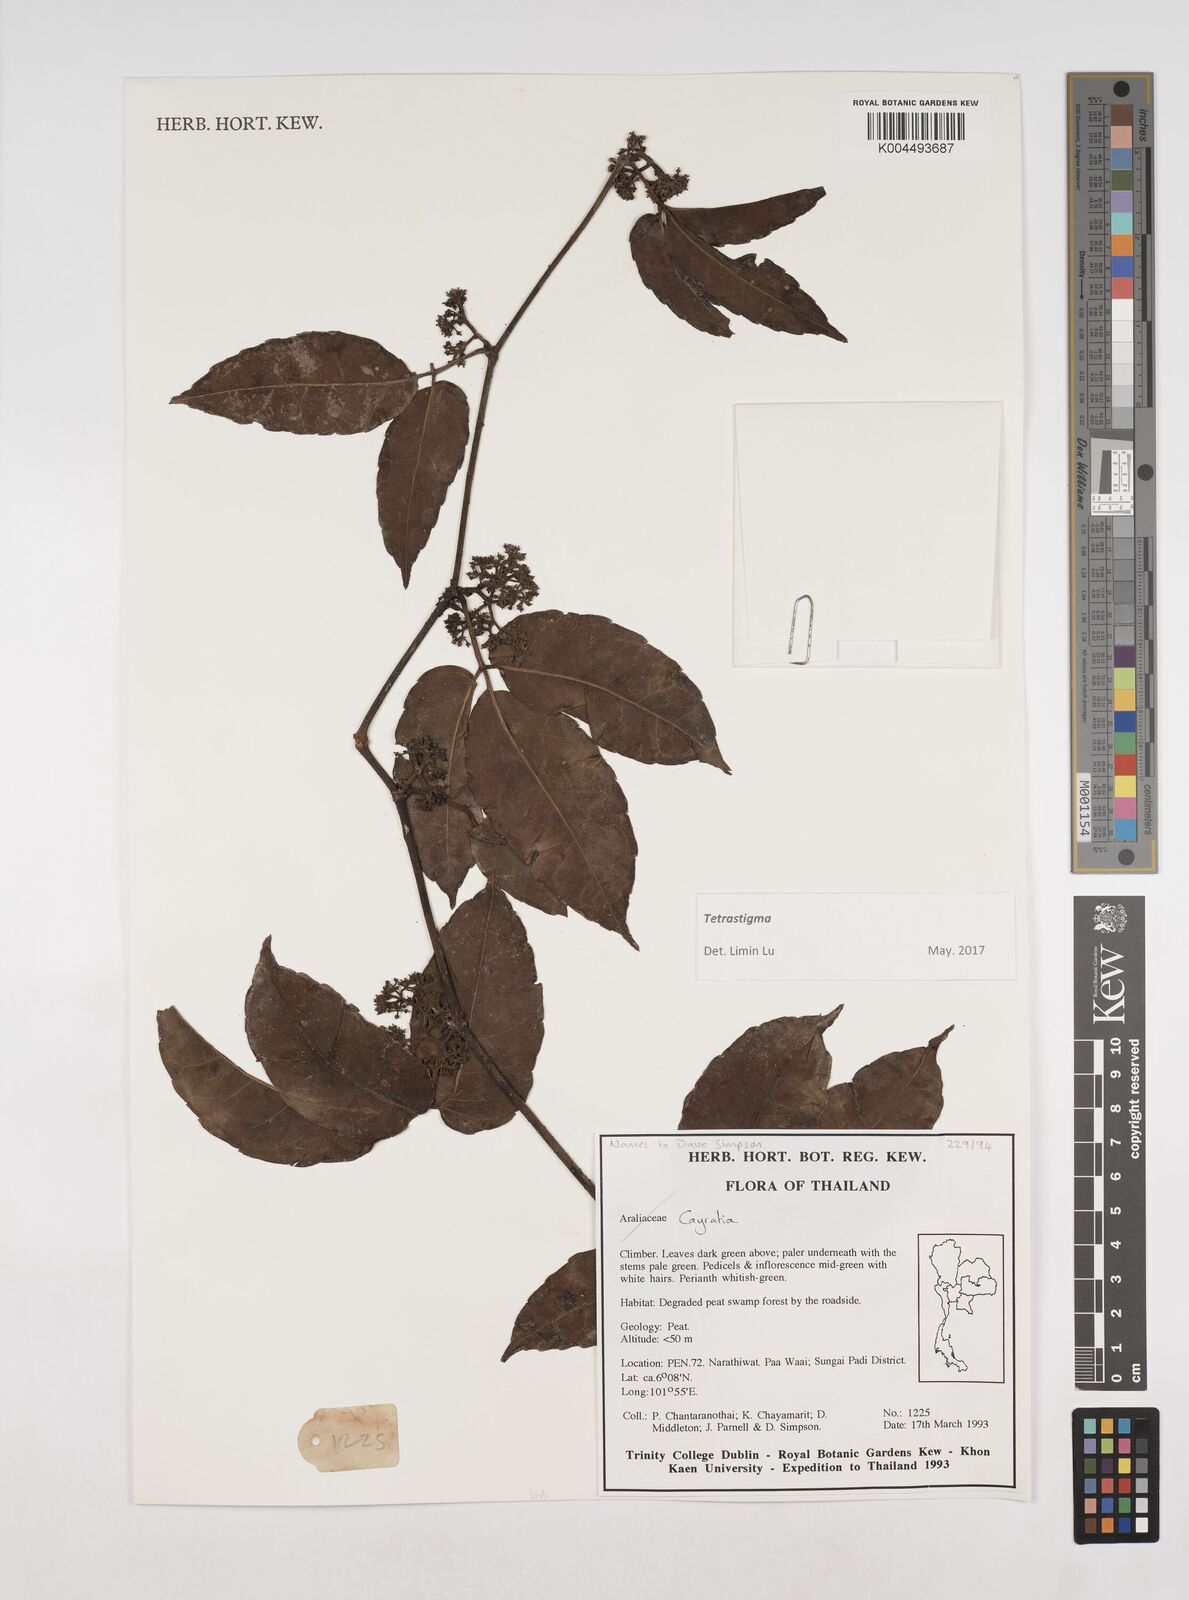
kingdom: Plantae
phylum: Tracheophyta
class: Magnoliopsida
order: Vitales
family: Vitaceae
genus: Tetrastigma
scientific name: Tetrastigma
